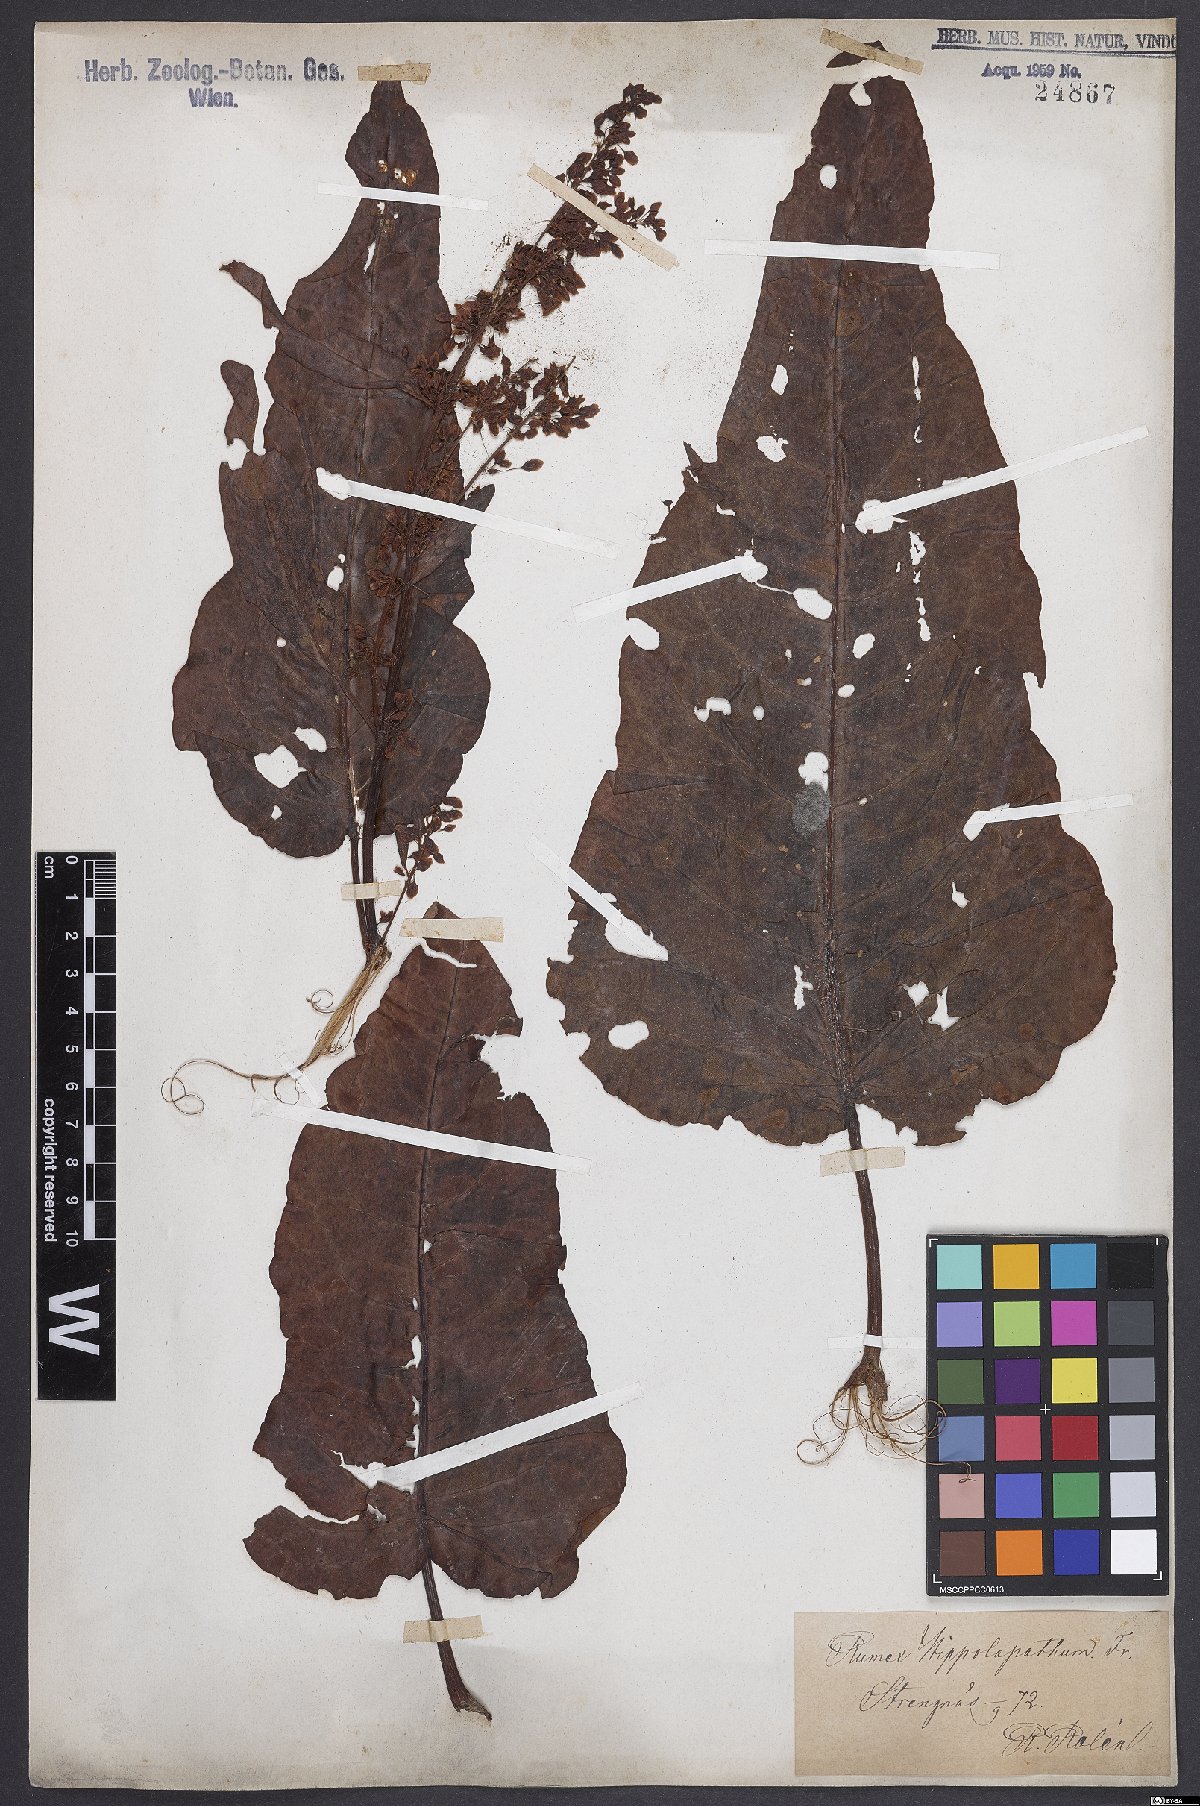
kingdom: Plantae
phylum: Tracheophyta
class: Magnoliopsida
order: Caryophyllales
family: Polygonaceae
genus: Rumex
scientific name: Rumex
